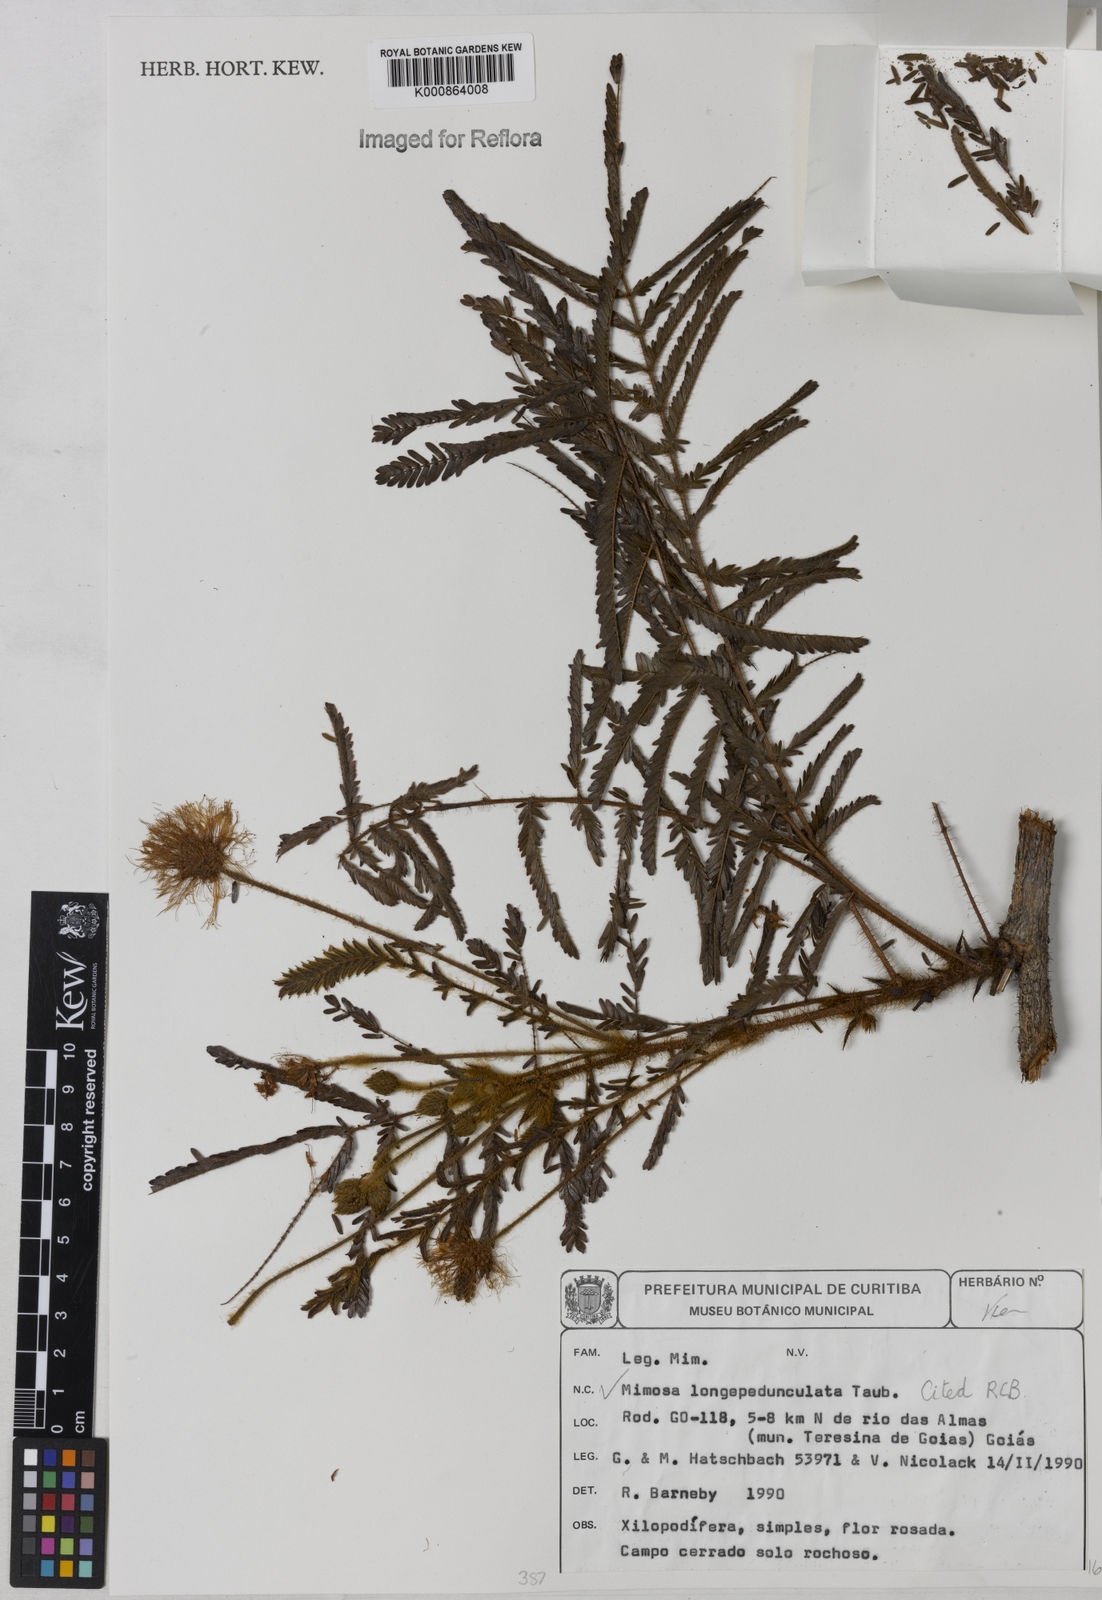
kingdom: Plantae
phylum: Tracheophyta
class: Magnoliopsida
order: Fabales
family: Fabaceae
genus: Mimosa
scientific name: Mimosa tocantina
